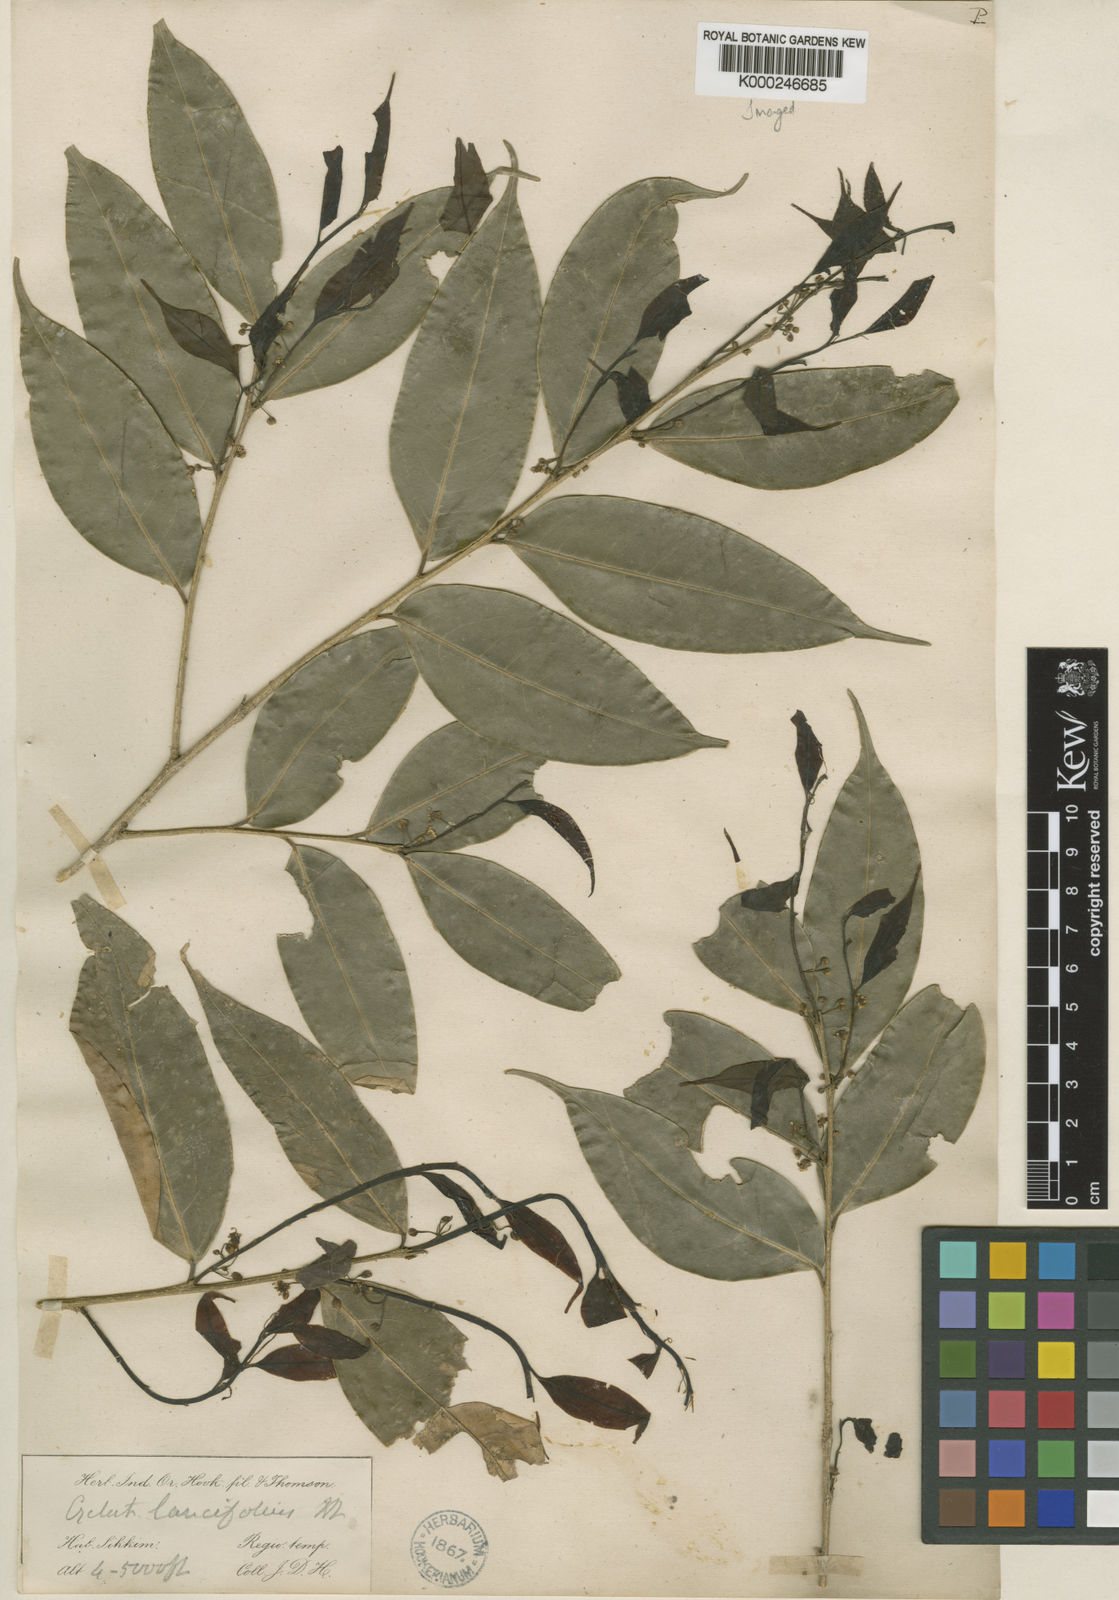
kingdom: Plantae
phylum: Tracheophyta
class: Magnoliopsida
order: Malpighiales
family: Putranjivaceae
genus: Drypetes
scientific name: Drypetes
